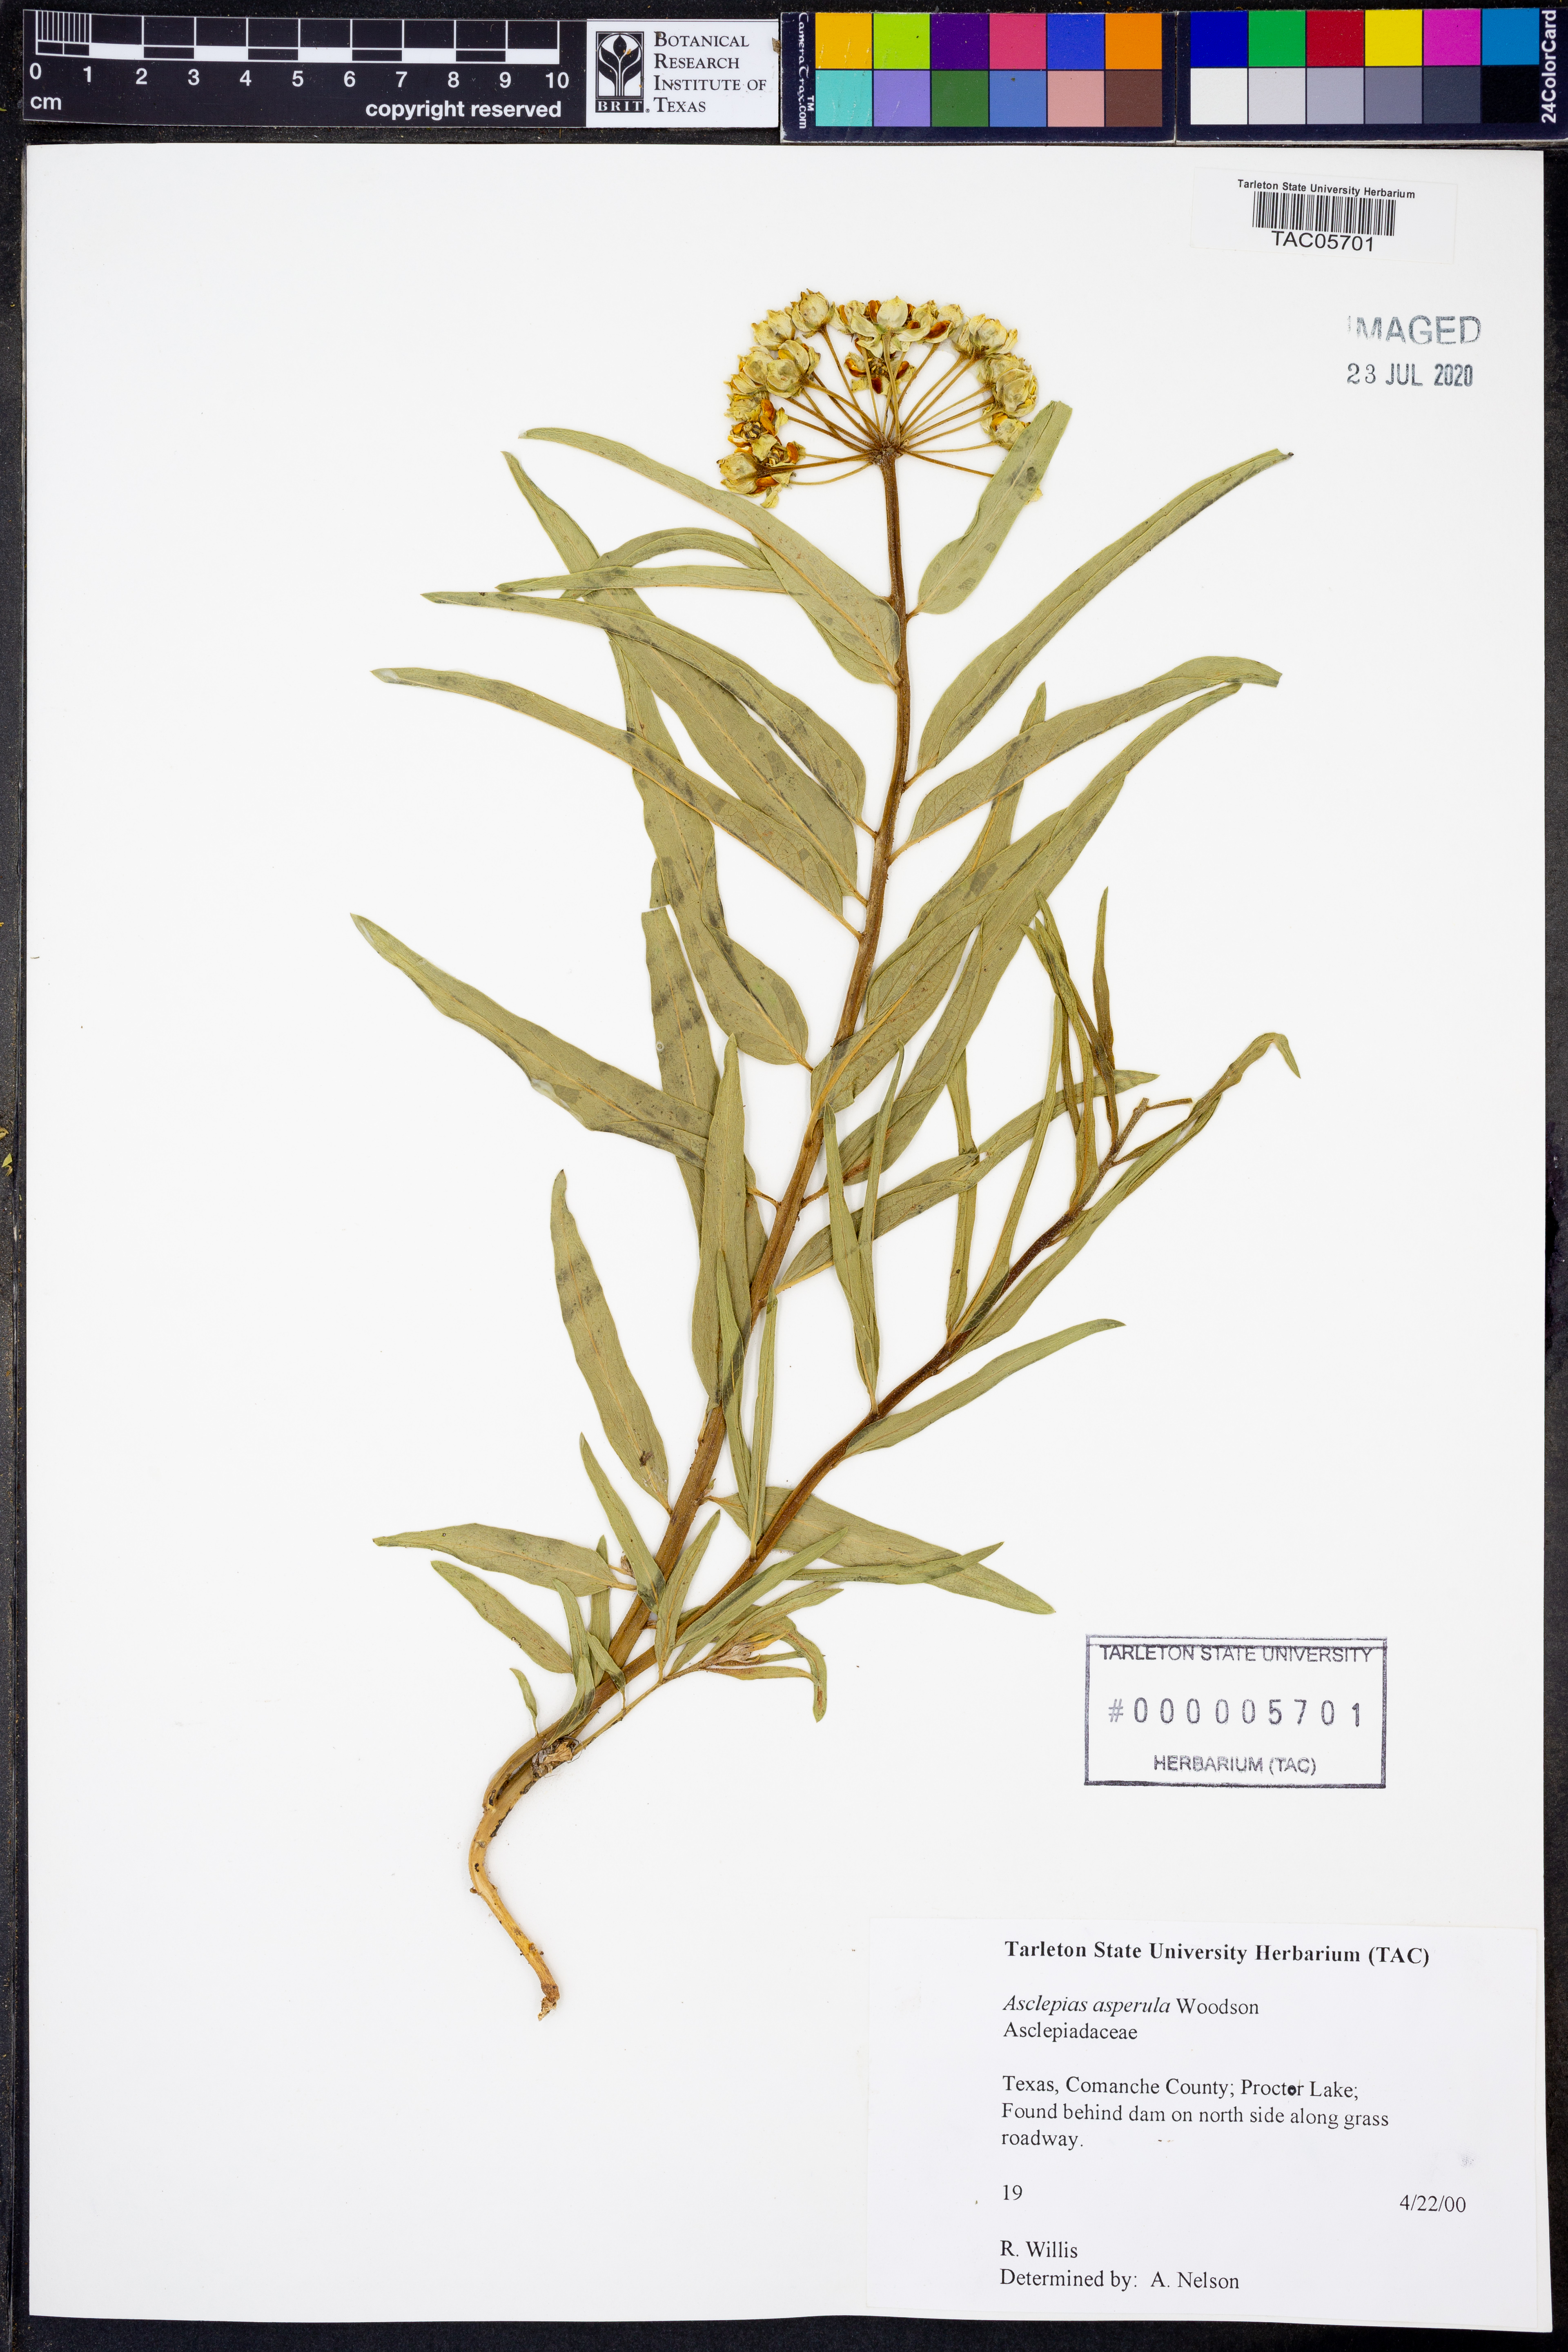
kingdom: Plantae
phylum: Tracheophyta
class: Magnoliopsida
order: Gentianales
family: Apocynaceae
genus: Asclepias
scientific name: Asclepias asperula
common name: Antelope horns
